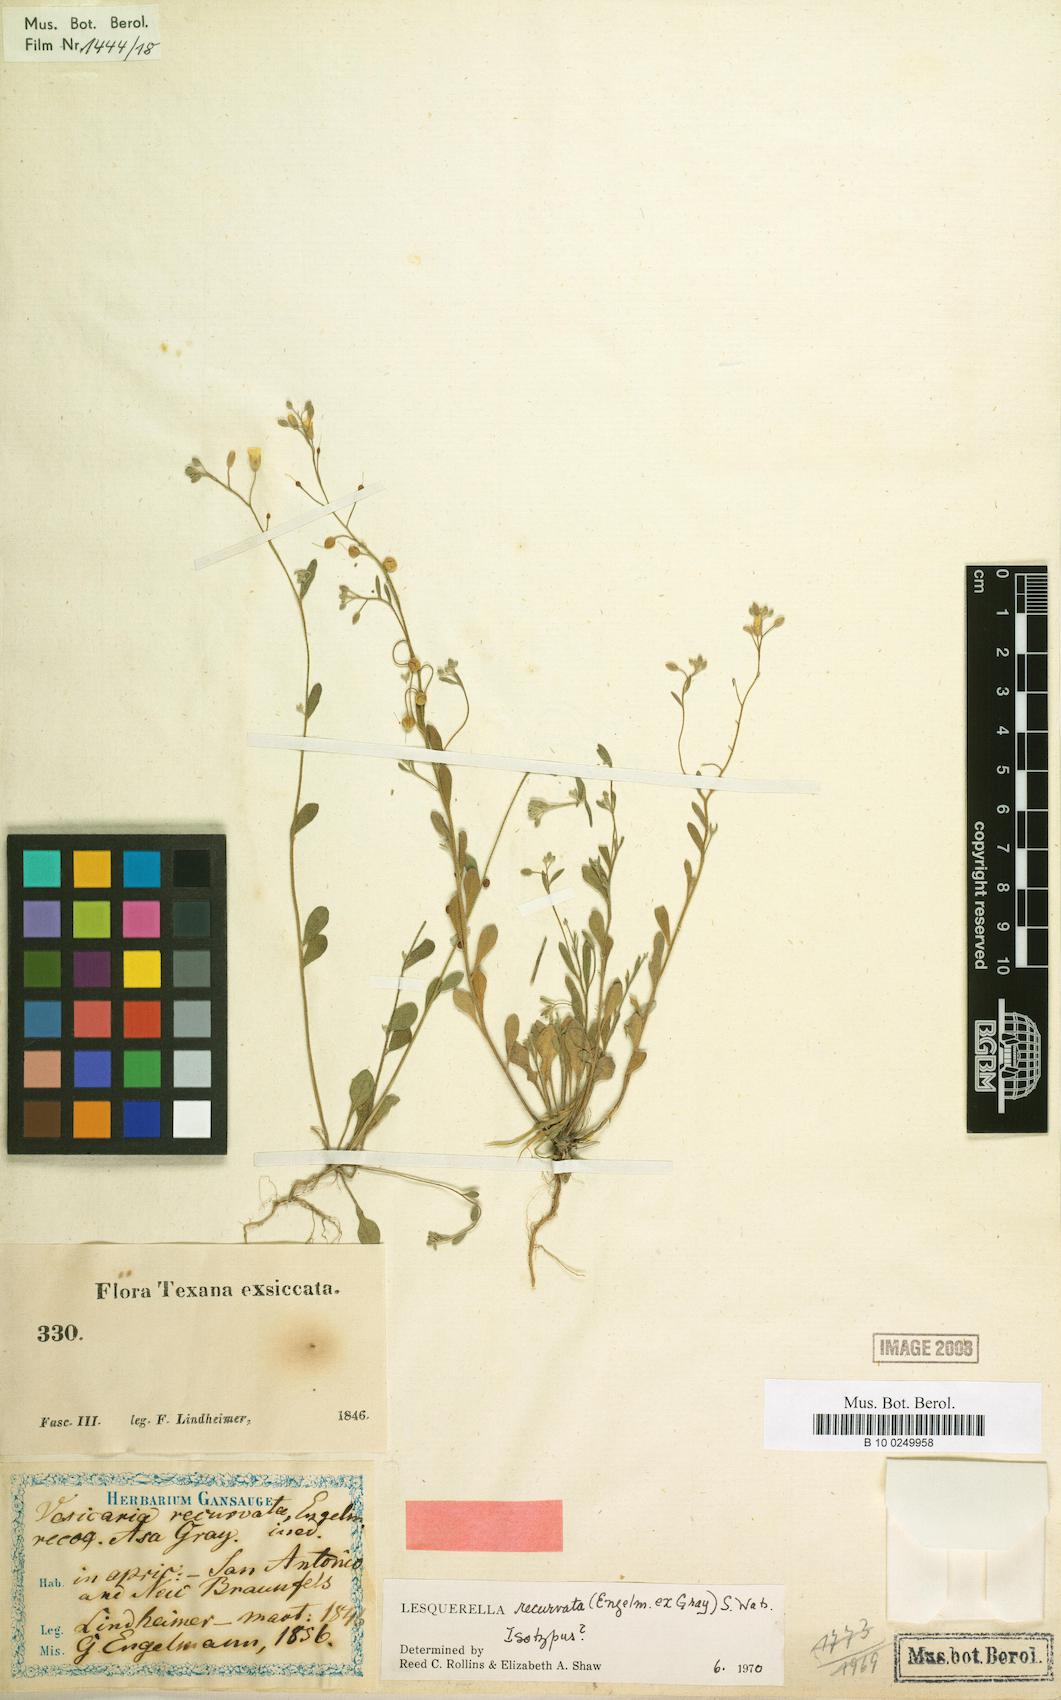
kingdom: Plantae
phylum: Tracheophyta
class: Magnoliopsida
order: Brassicales
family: Brassicaceae
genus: Physaria
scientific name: Physaria recurvata
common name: Gaslight bladderpod
